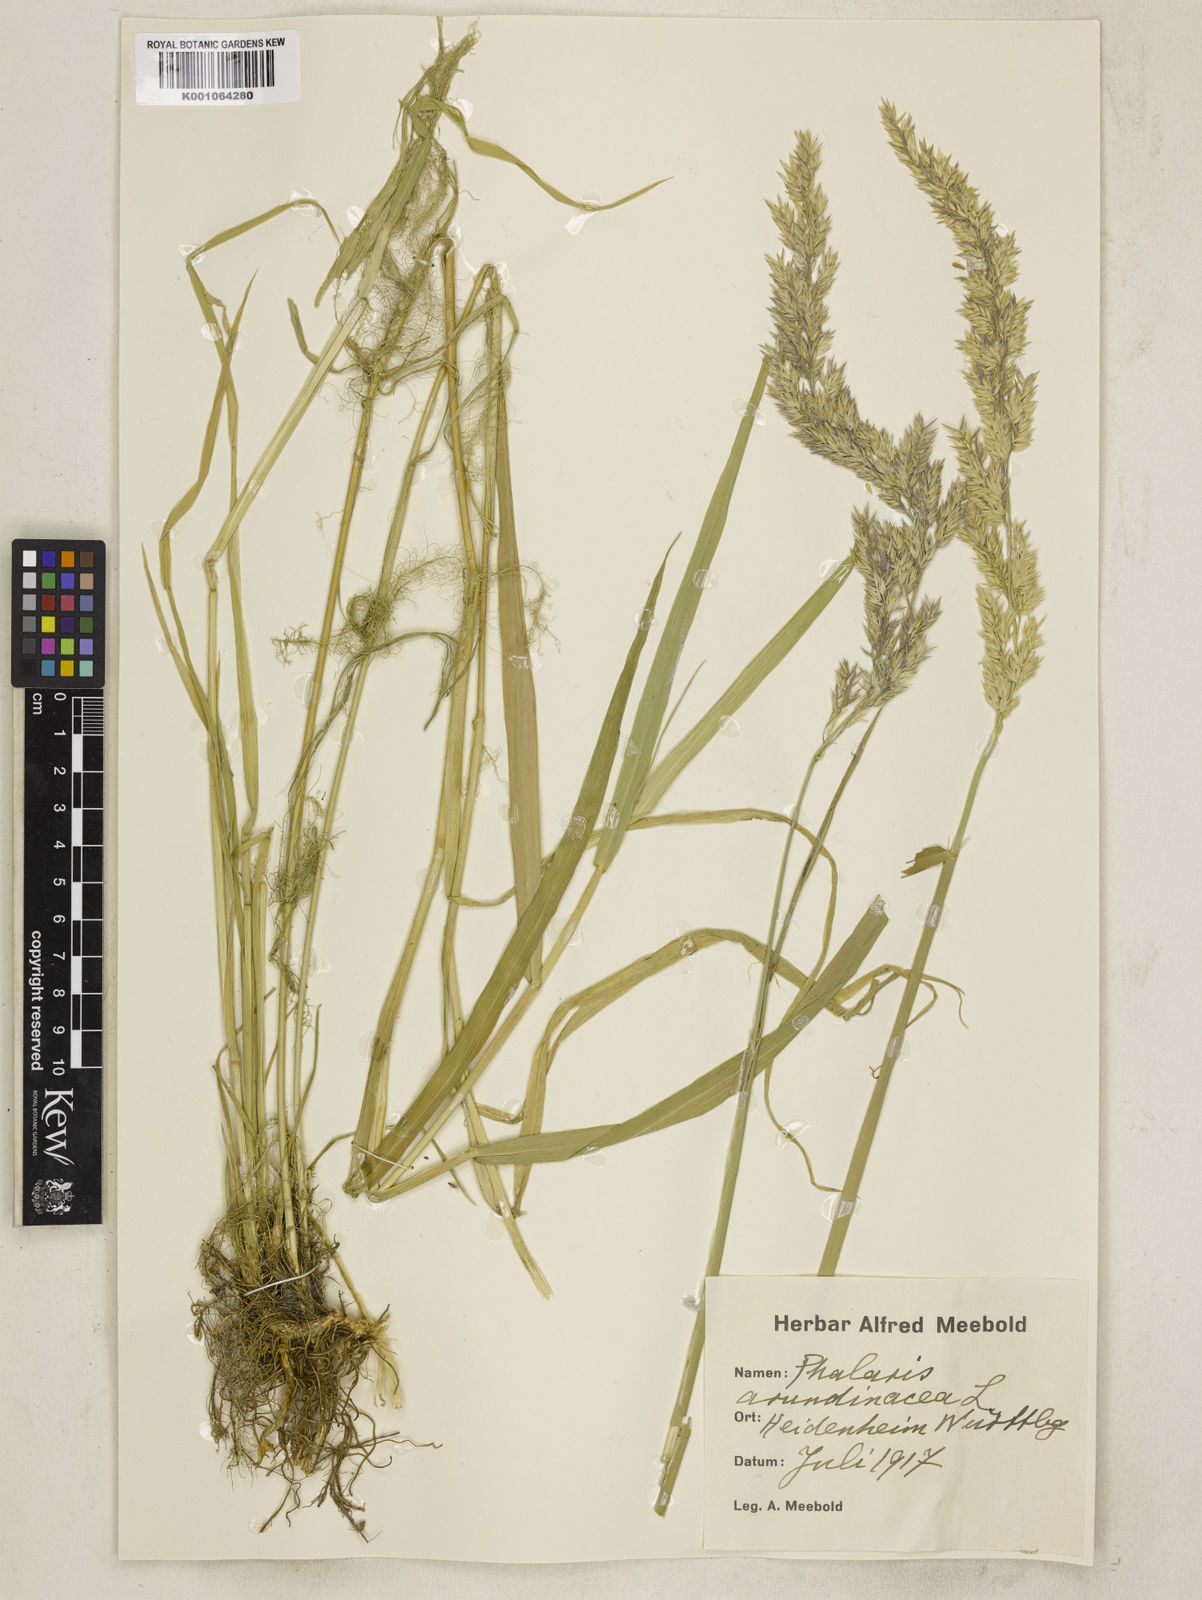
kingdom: Plantae
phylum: Tracheophyta
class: Liliopsida
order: Poales
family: Poaceae
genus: Phalaris
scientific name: Phalaris arundinacea
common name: Reed canary-grass
